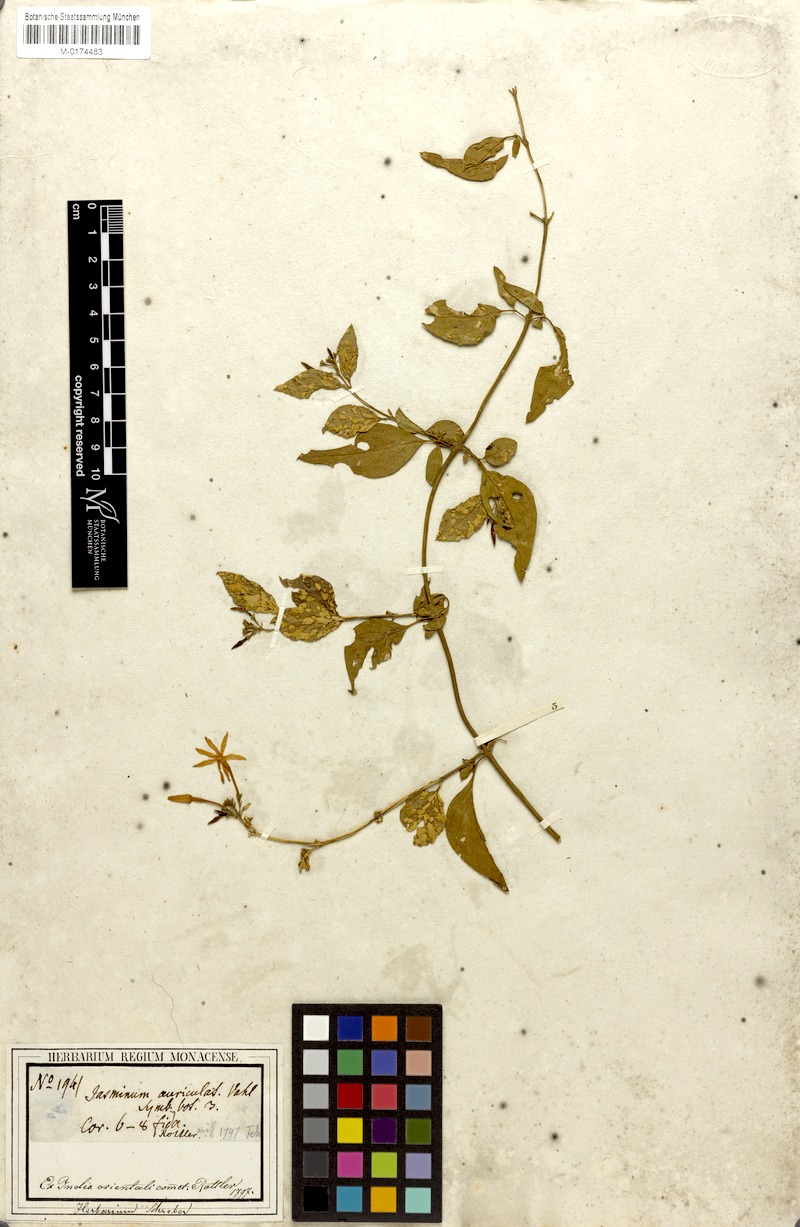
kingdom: Plantae
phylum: Tracheophyta
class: Magnoliopsida
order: Lamiales
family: Oleaceae
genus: Jasminum
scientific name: Jasminum auriculatum
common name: Needle-flower jasmine
